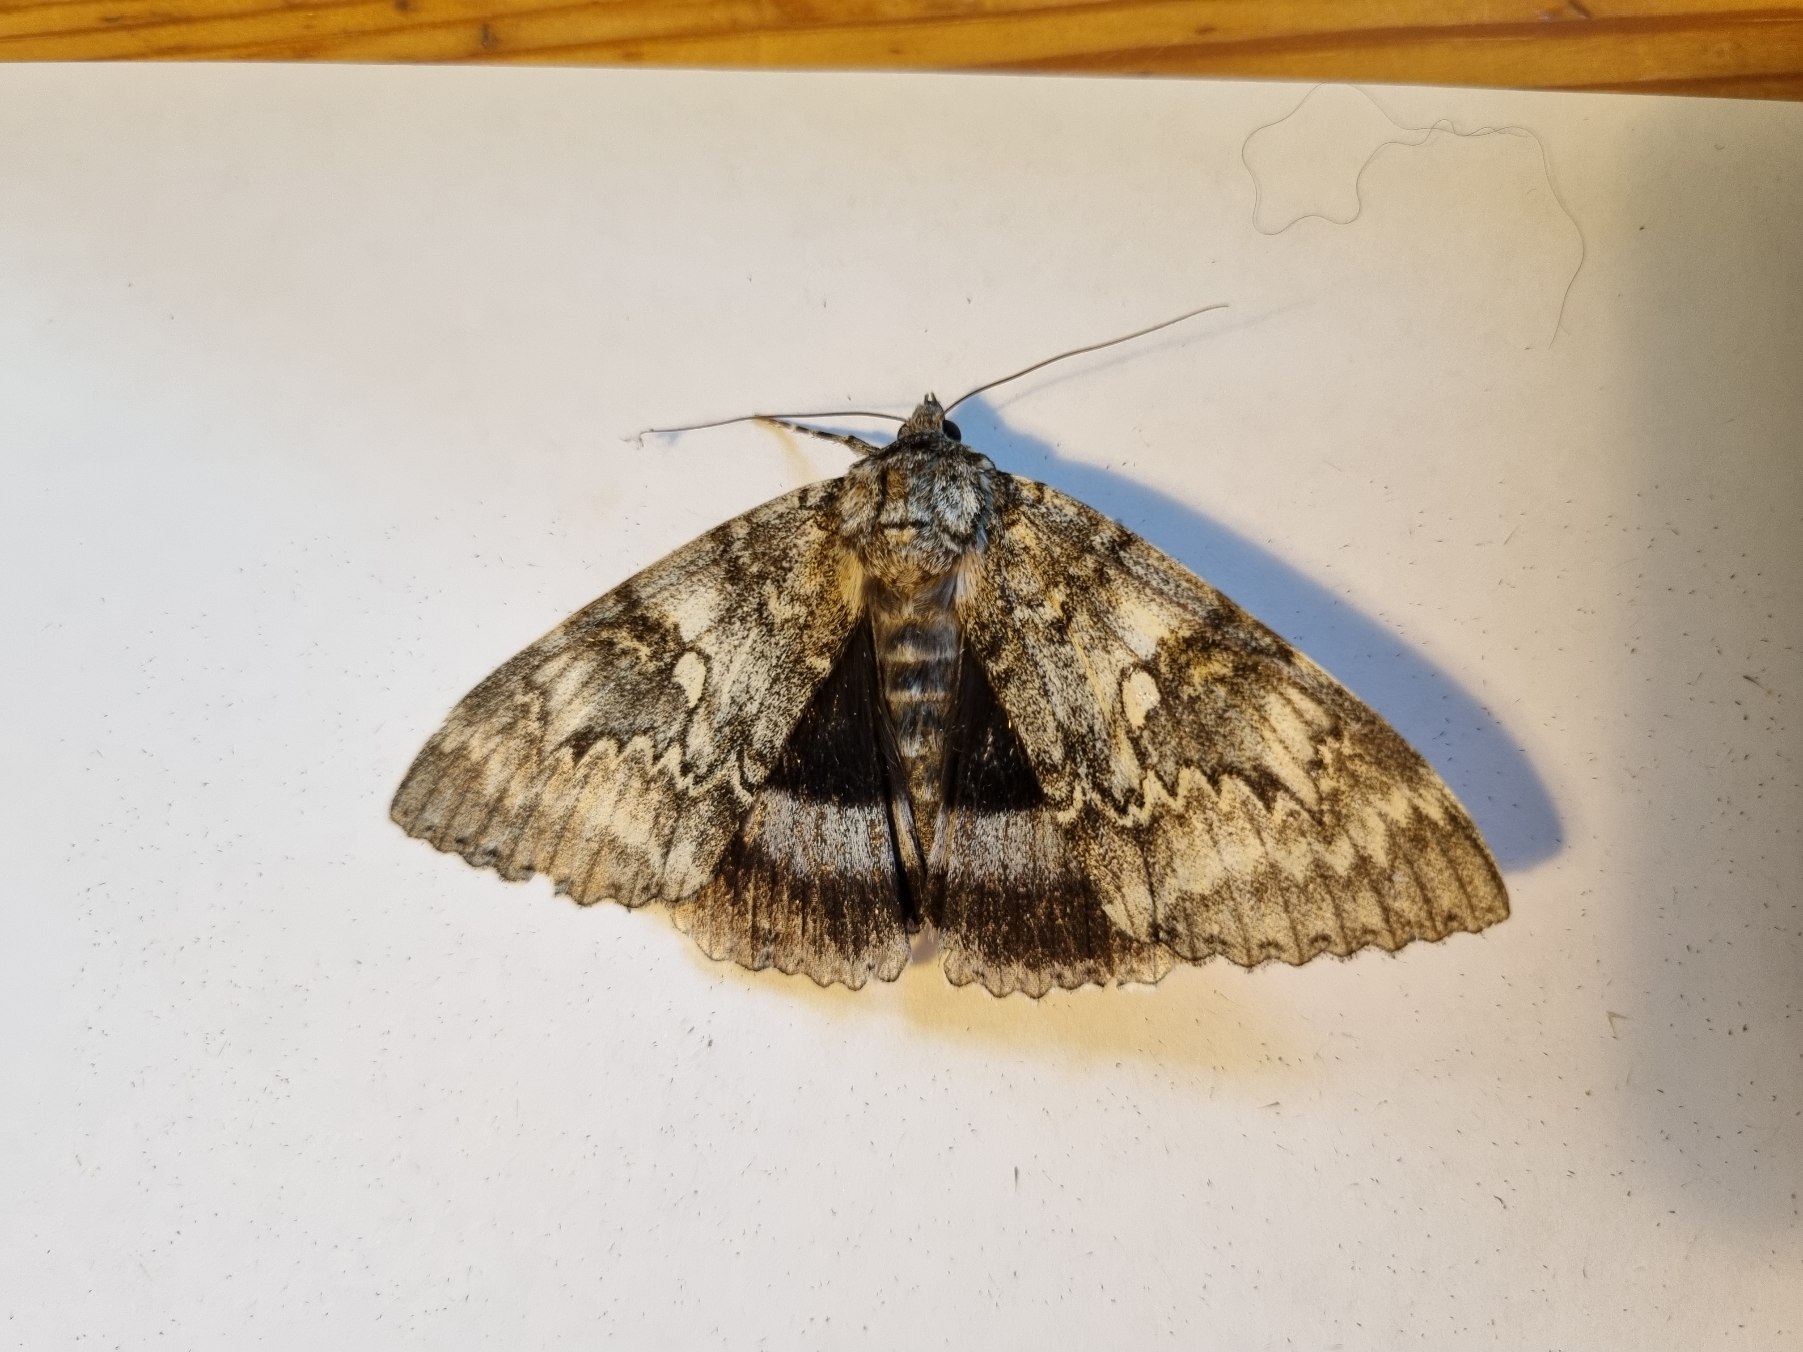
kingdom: Animalia
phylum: Arthropoda
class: Insecta
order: Lepidoptera
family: Erebidae
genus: Catocala
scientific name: Catocala fraxini
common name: Blåt ordensbånd
